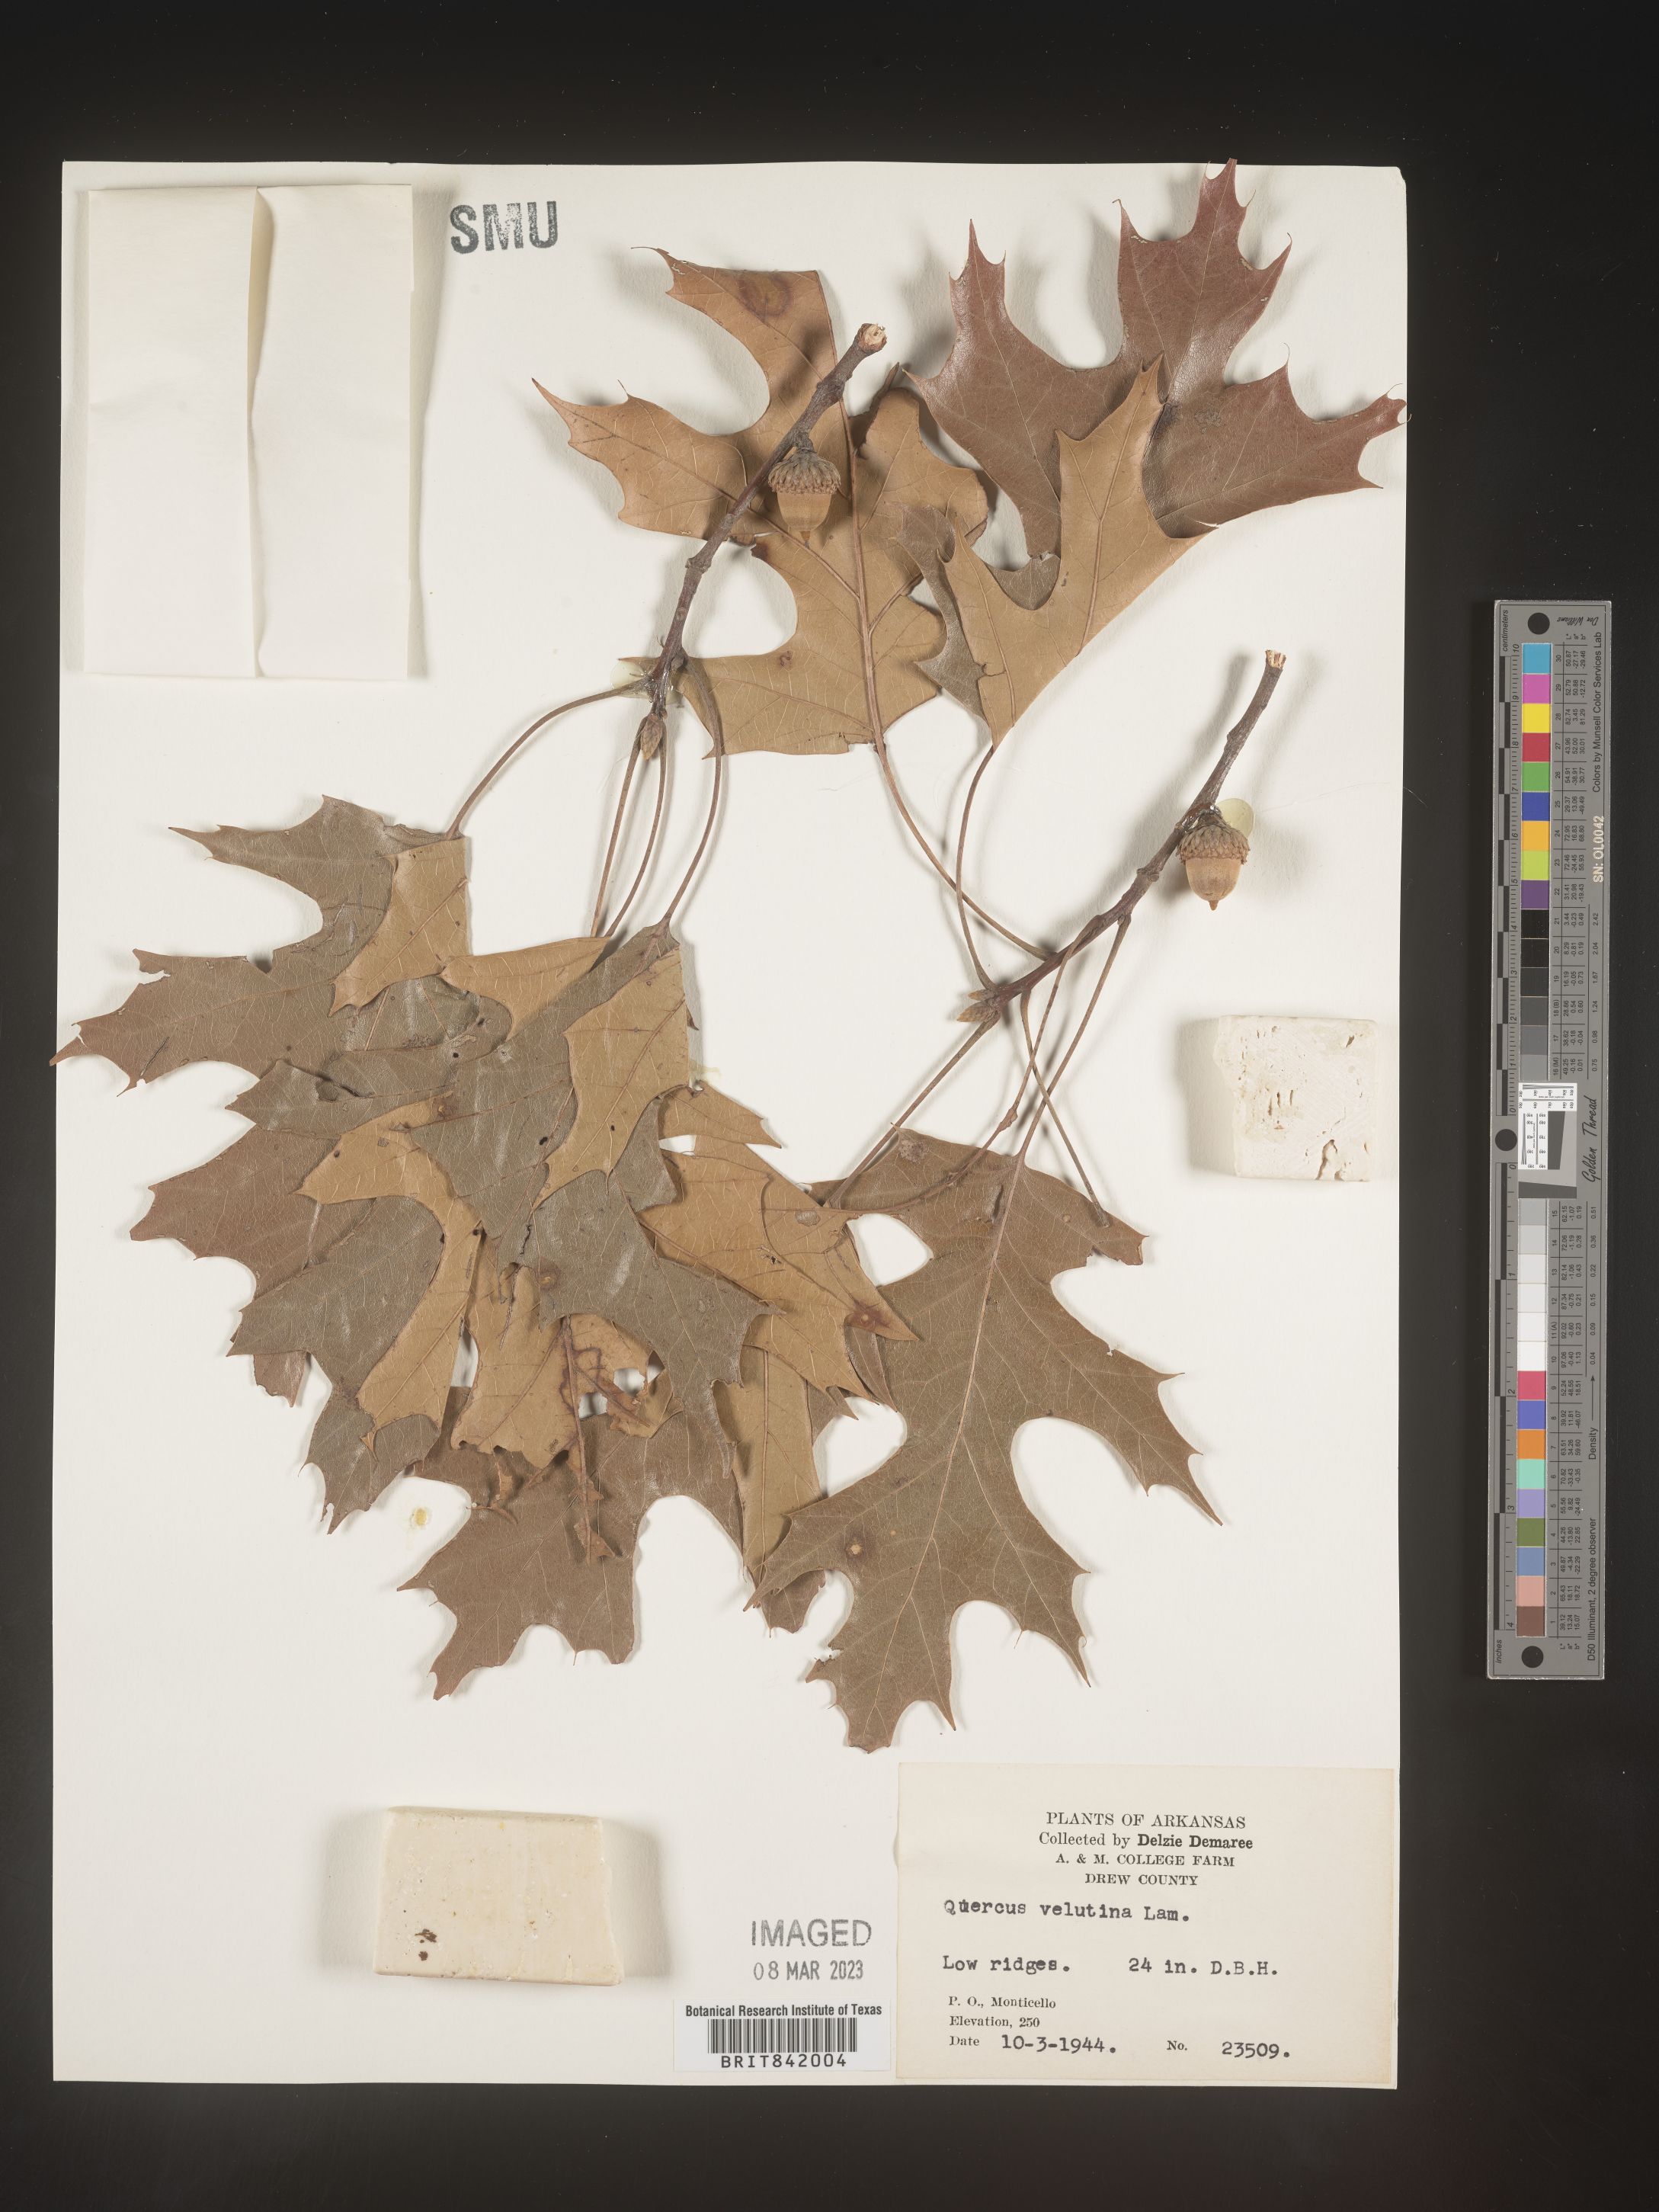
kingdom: Plantae
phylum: Tracheophyta
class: Magnoliopsida
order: Fagales
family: Fagaceae
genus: Quercus
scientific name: Quercus velutina
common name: Black oak
